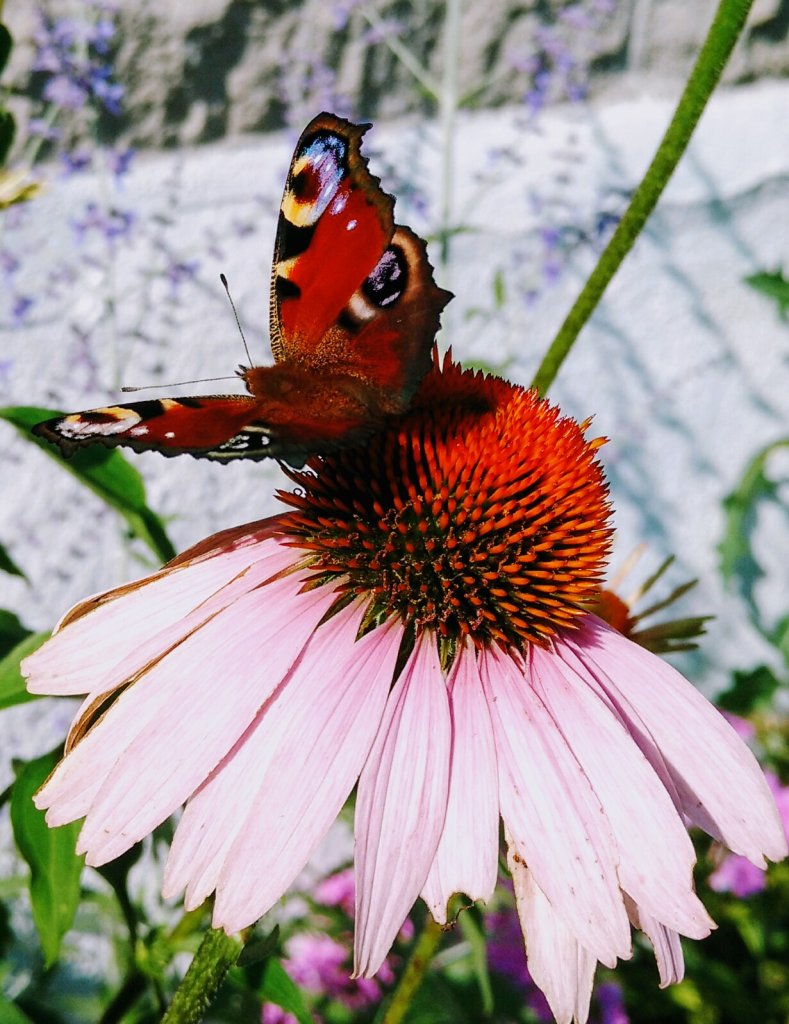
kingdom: Animalia
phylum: Arthropoda
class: Insecta
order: Lepidoptera
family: Nymphalidae
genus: Aglais
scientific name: Aglais io
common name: European Peacock
